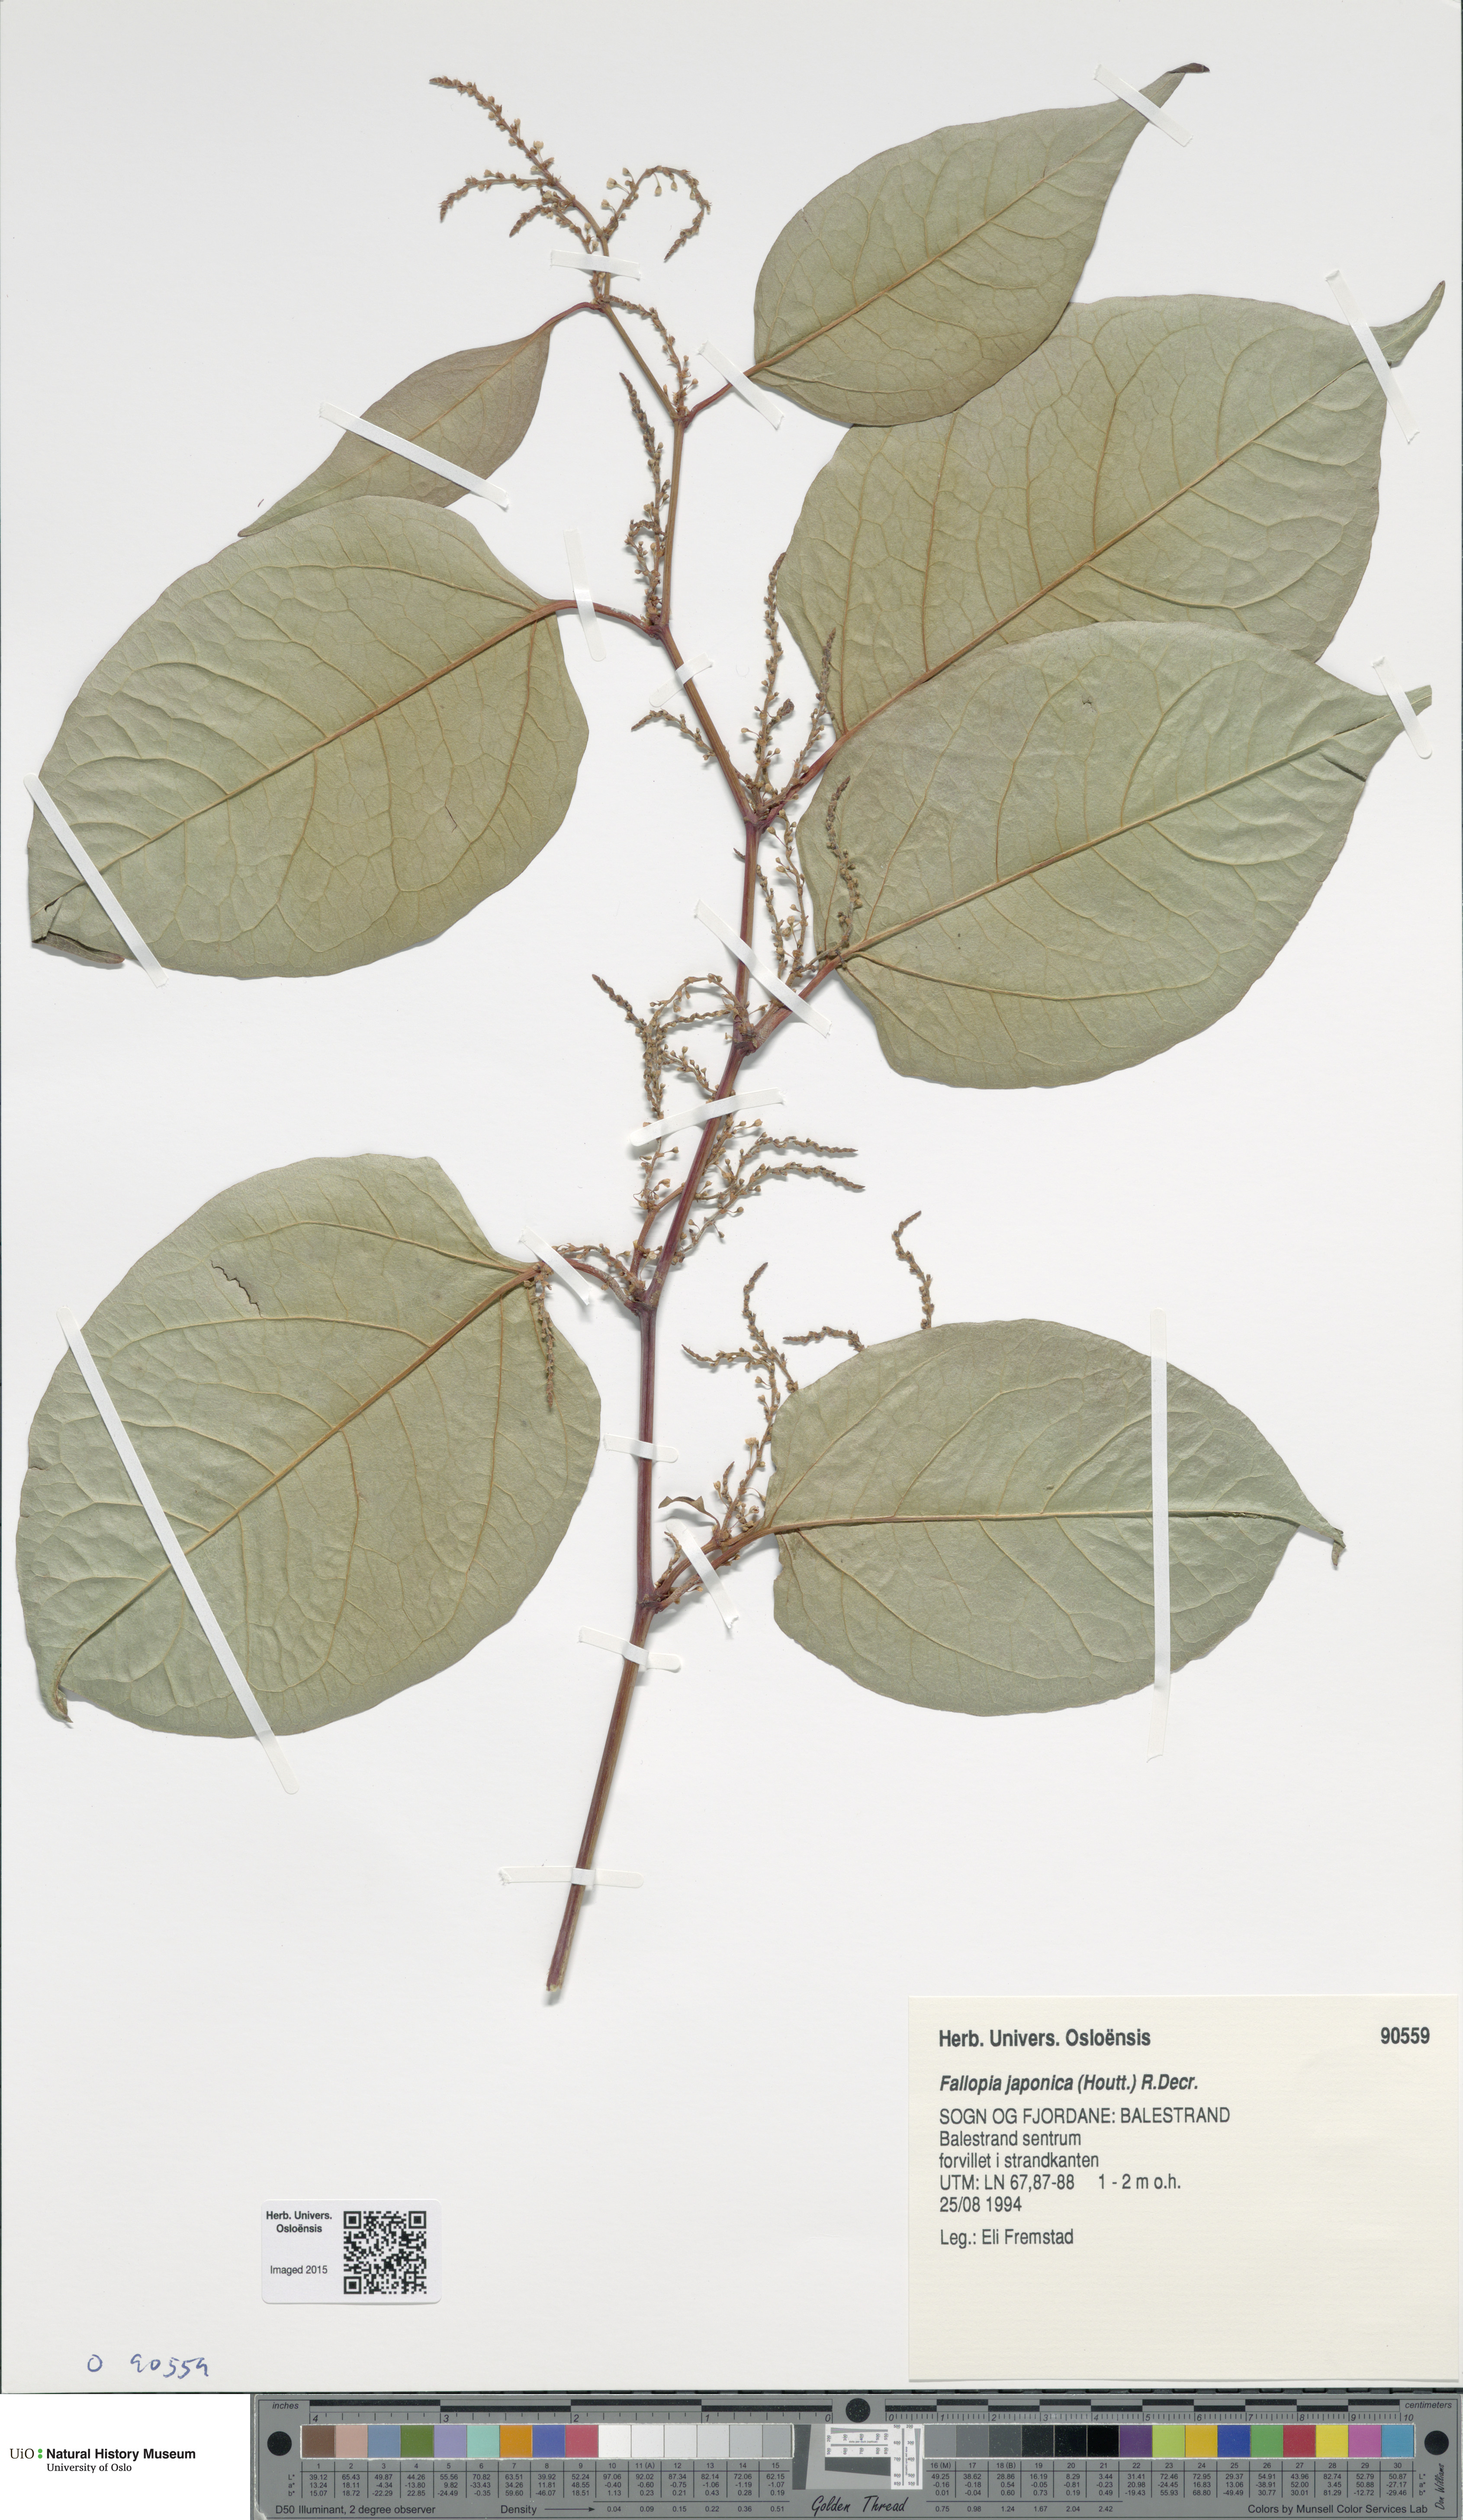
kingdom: Plantae
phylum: Tracheophyta
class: Magnoliopsida
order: Caryophyllales
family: Polygonaceae
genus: Reynoutria
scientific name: Reynoutria japonica
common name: Japanese knotweed
